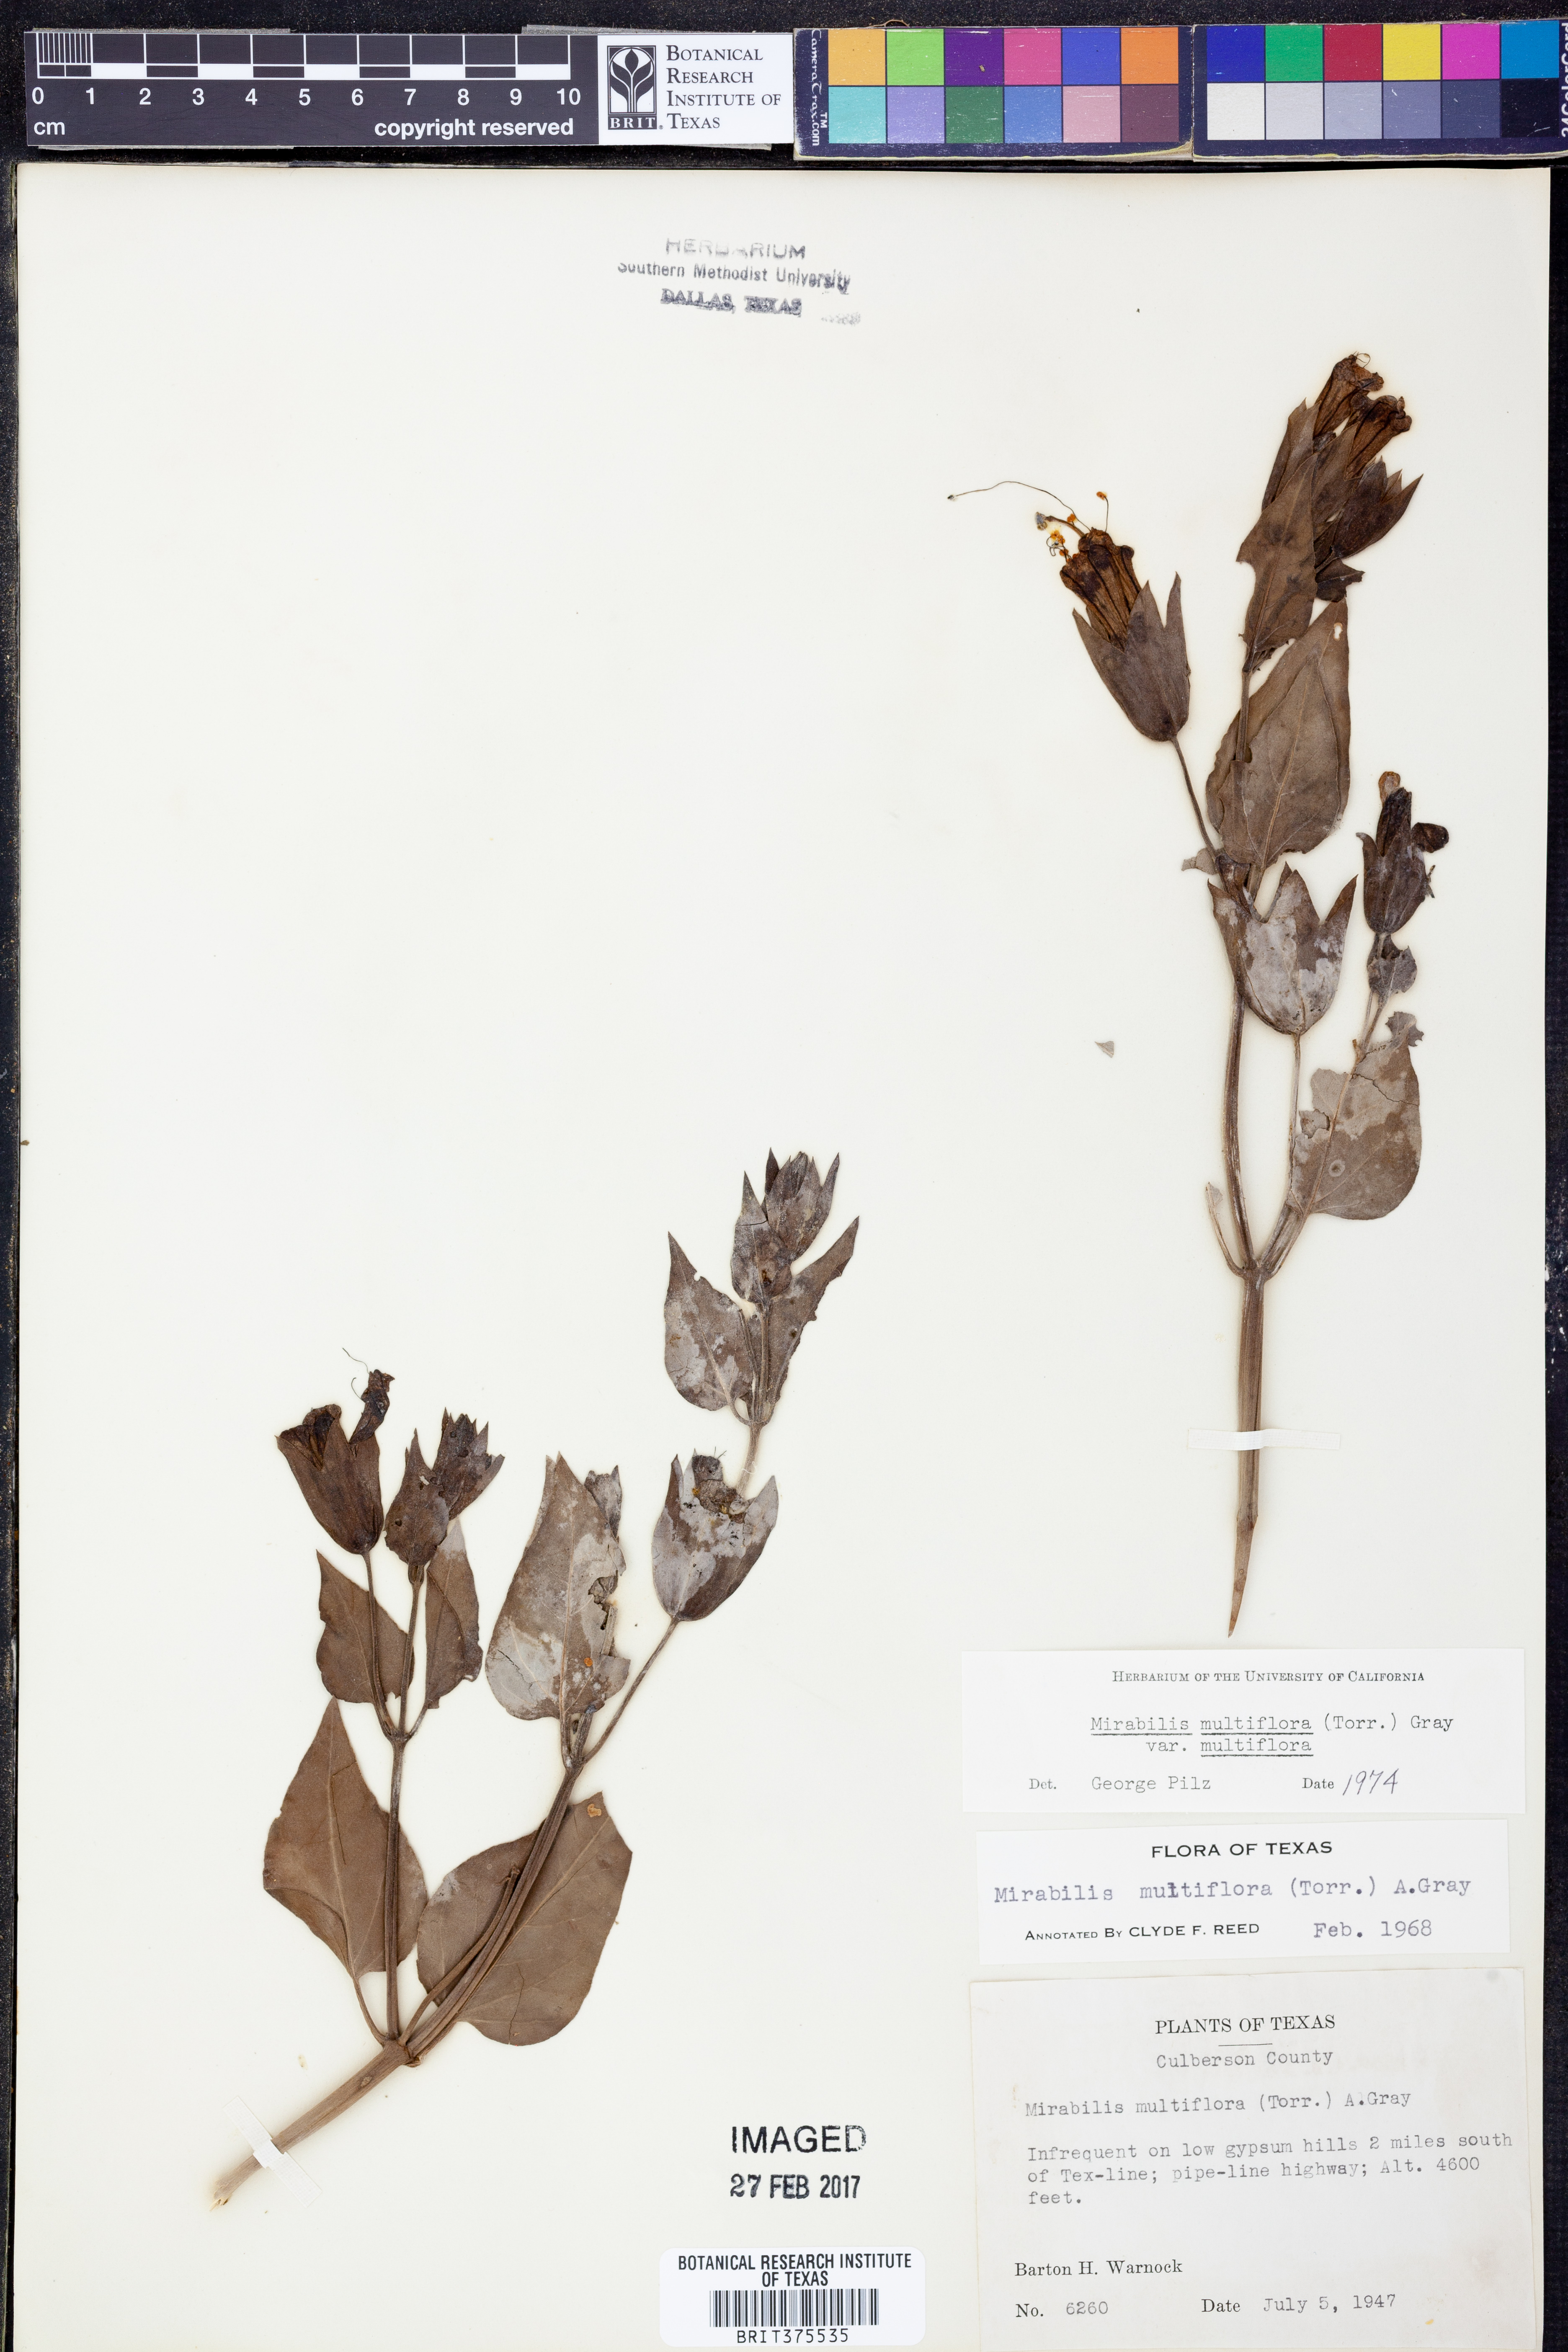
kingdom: Plantae
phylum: Tracheophyta
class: Magnoliopsida
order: Caryophyllales
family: Nyctaginaceae
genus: Mirabilis
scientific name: Mirabilis multiflora
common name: Froebel's four-o'clock
